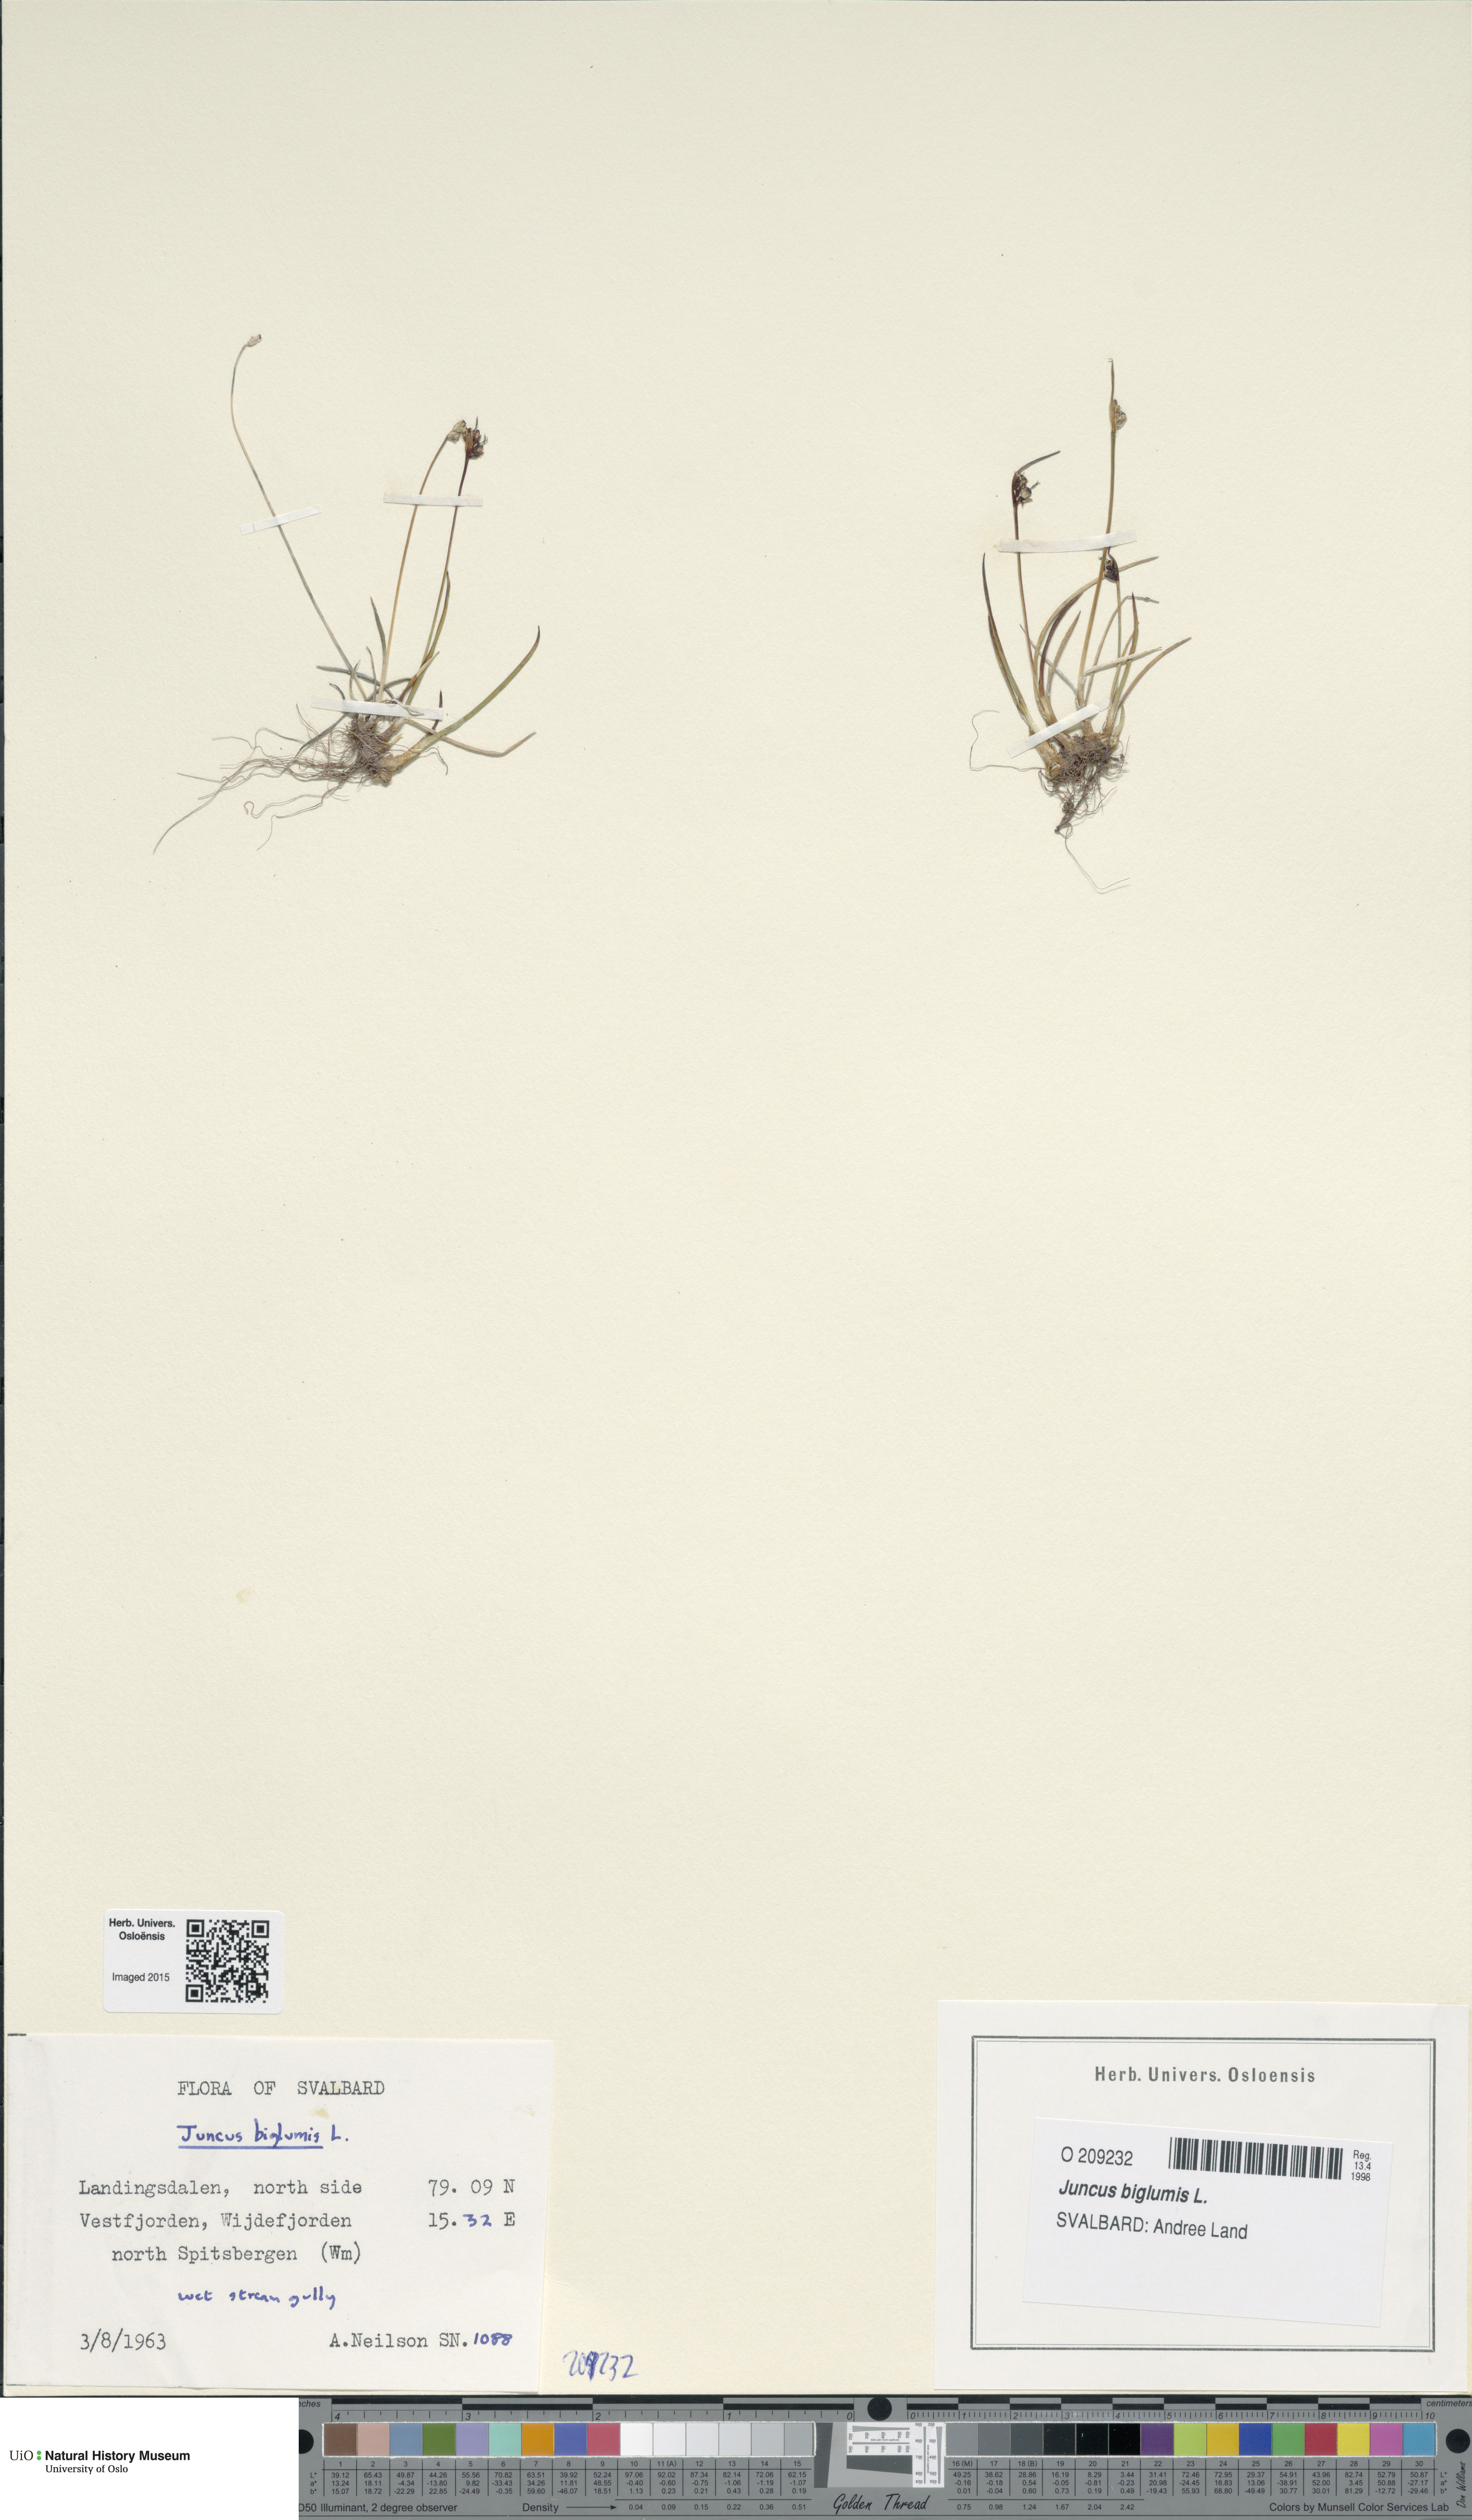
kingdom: Plantae
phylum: Tracheophyta
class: Liliopsida
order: Poales
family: Juncaceae
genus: Juncus
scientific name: Juncus biglumis
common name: Two-flowered rush
